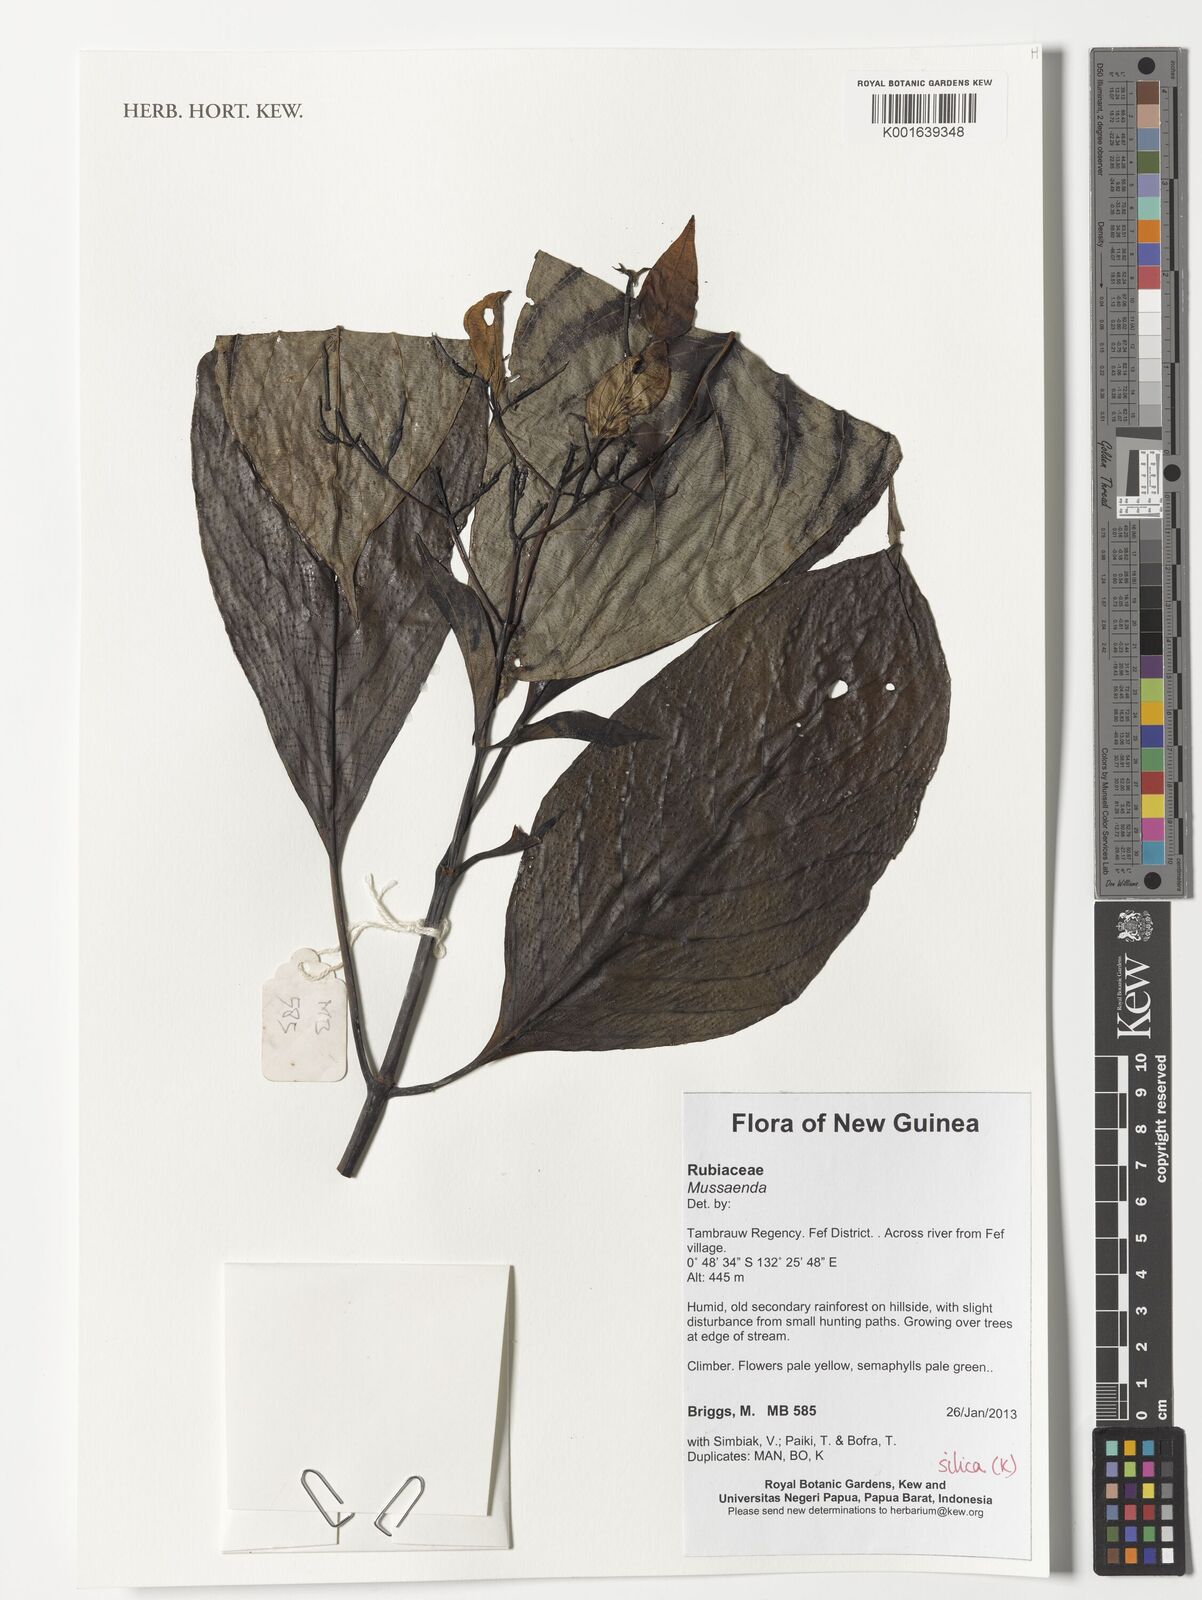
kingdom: Plantae
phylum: Tracheophyta
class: Magnoliopsida
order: Gentianales
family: Rubiaceae
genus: Mussaenda
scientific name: Mussaenda
